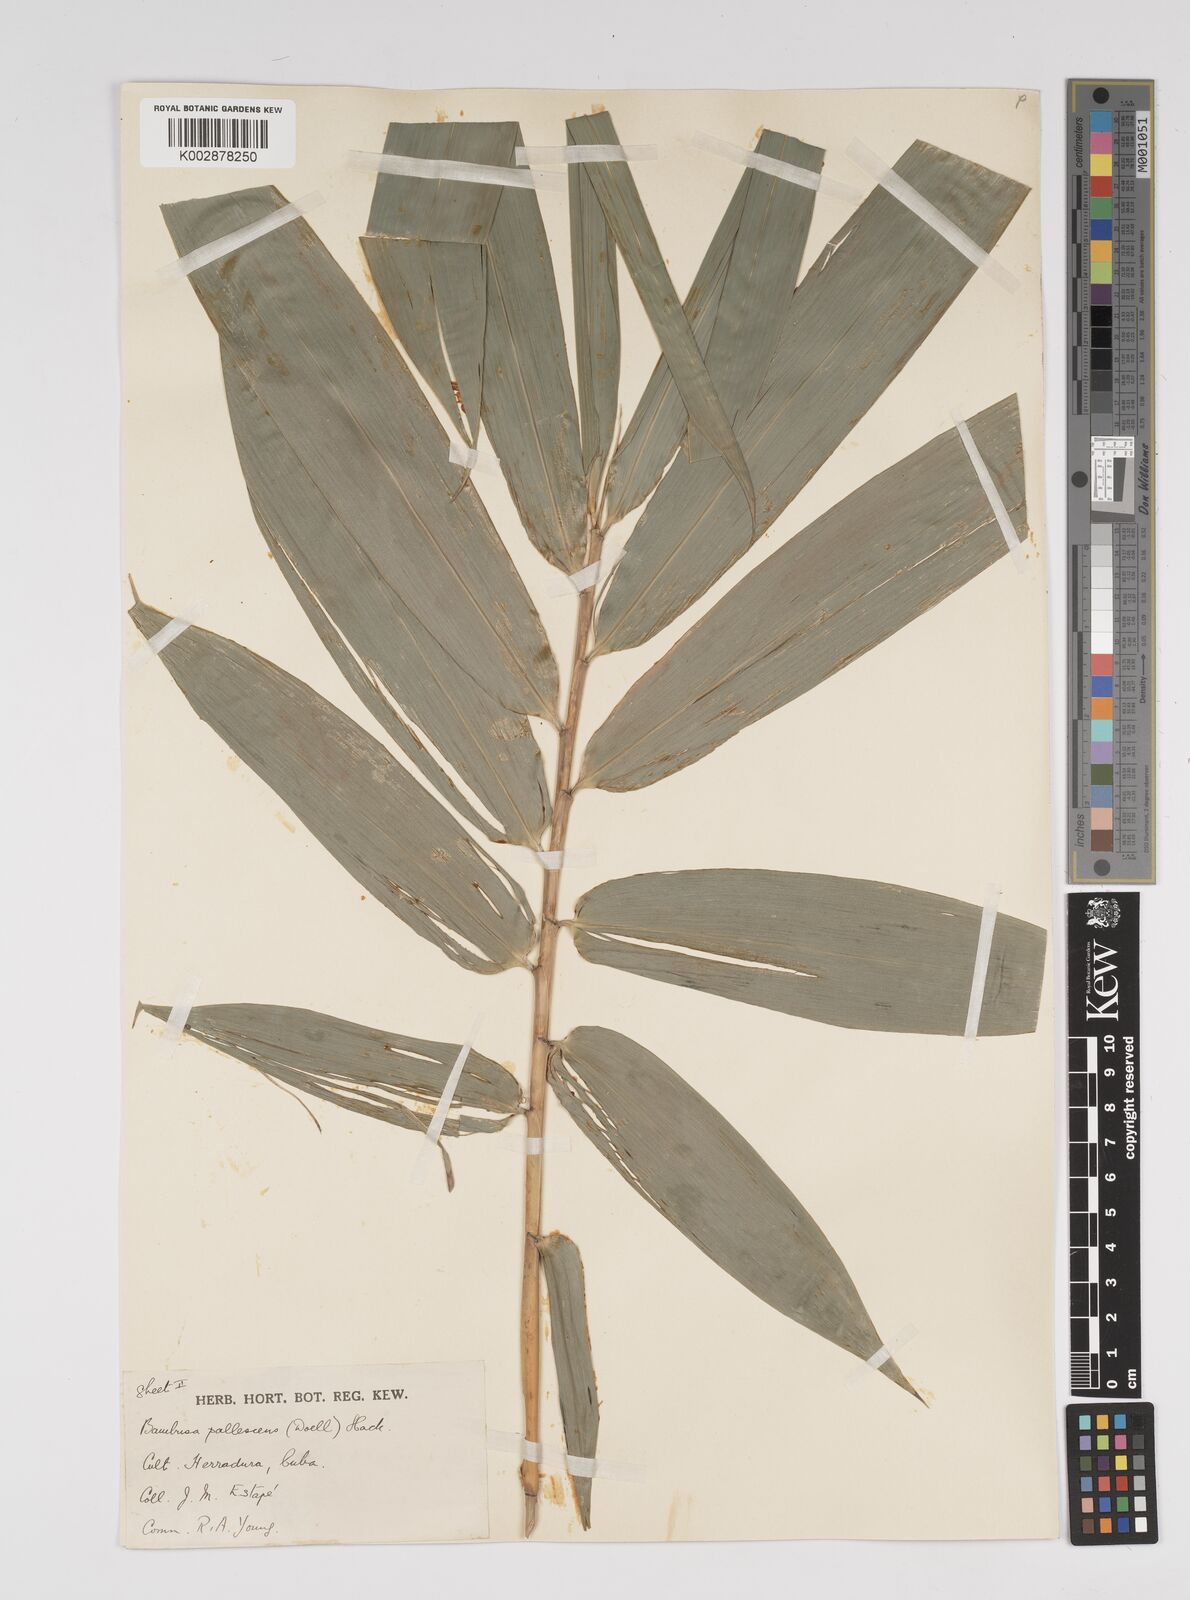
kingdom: Plantae
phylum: Tracheophyta
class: Liliopsida
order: Poales
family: Poaceae
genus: Bambusa
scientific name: Bambusa tuldoides
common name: Verdant bamboo
